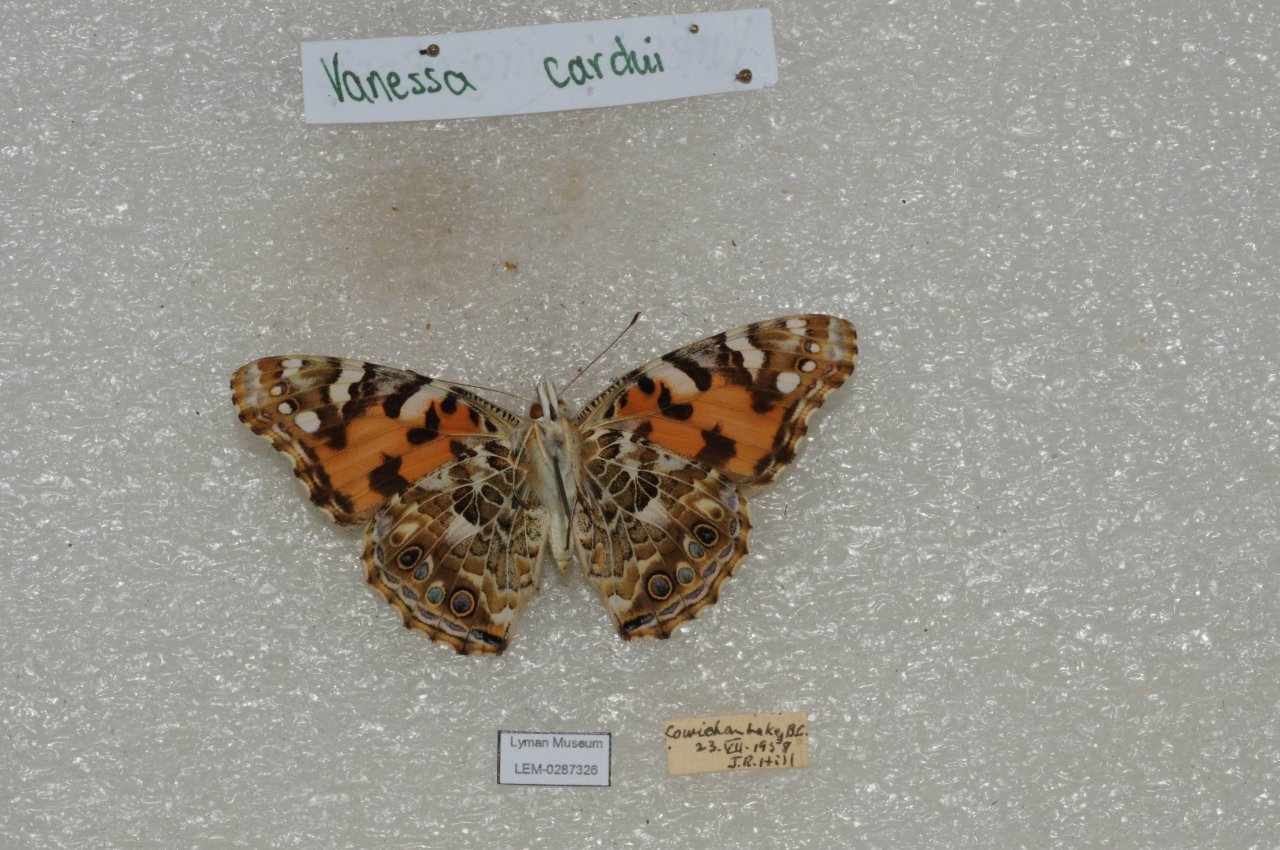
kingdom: Animalia
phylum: Arthropoda
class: Insecta
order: Lepidoptera
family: Nymphalidae
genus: Vanessa
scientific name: Vanessa cardui
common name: Painted Lady
